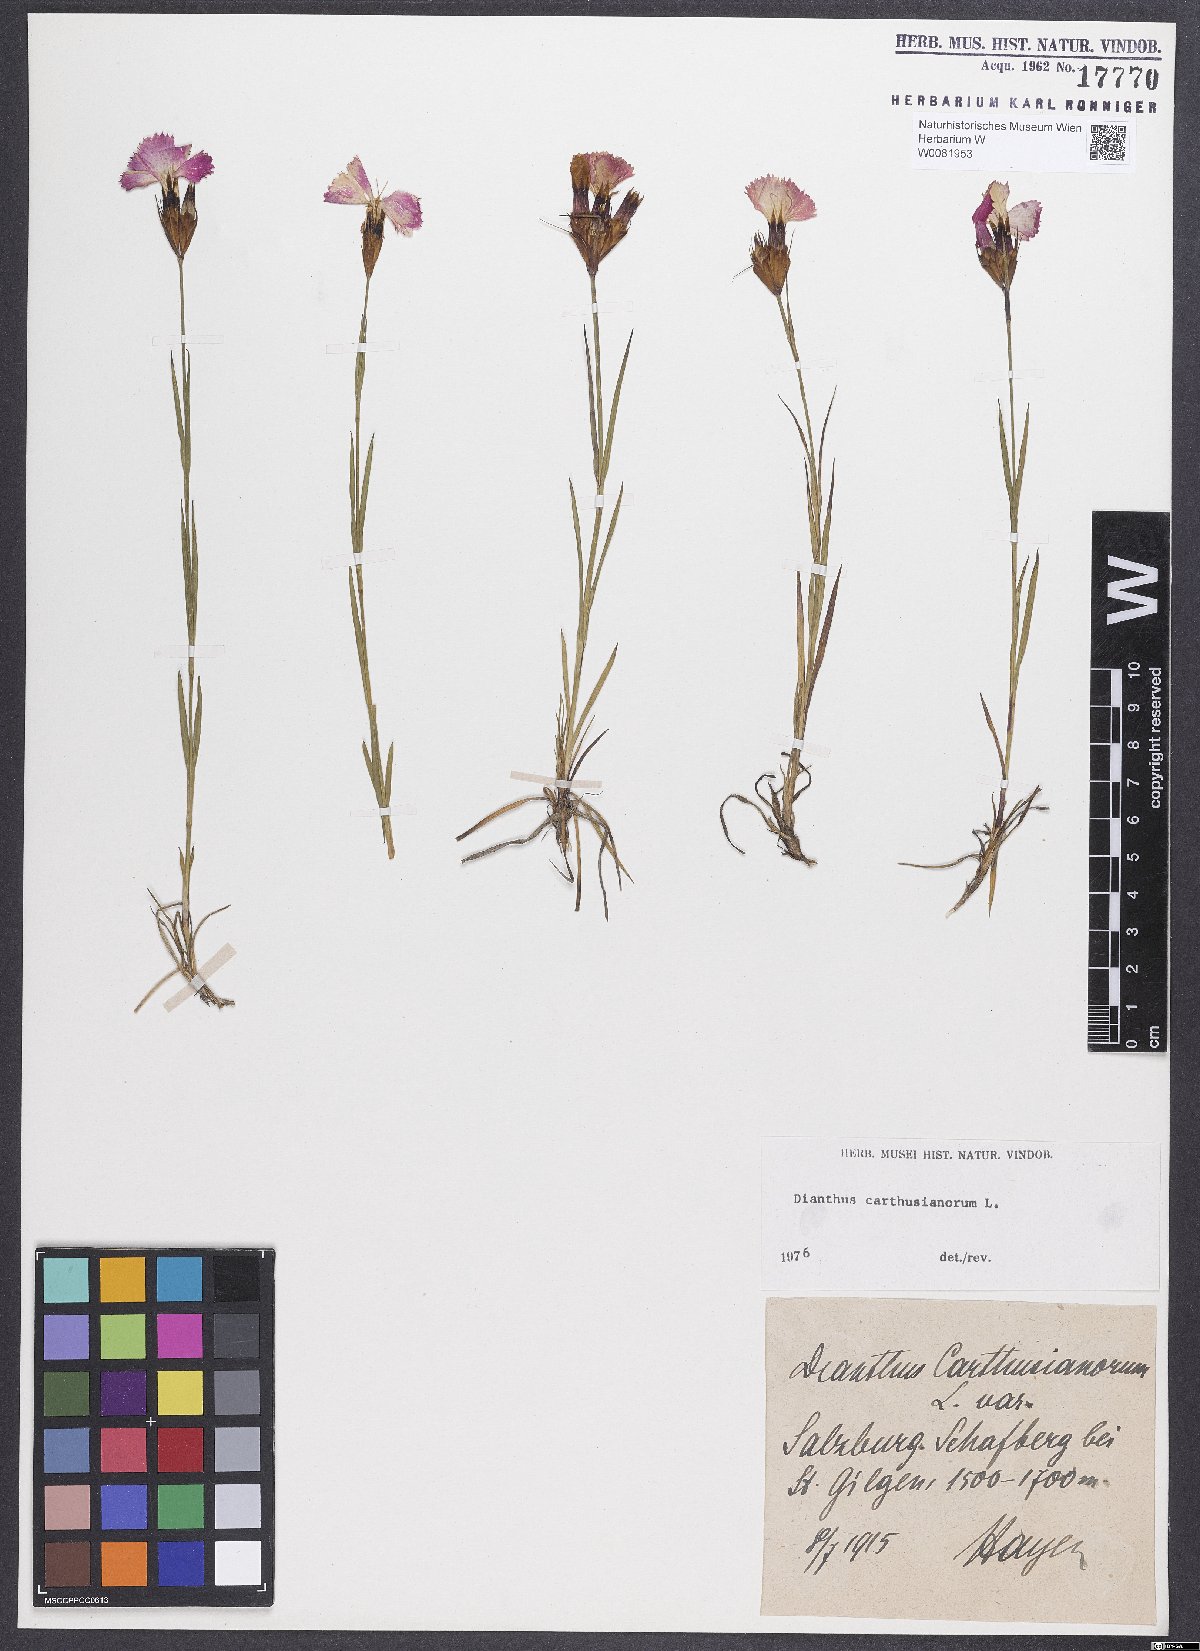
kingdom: Plantae
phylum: Tracheophyta
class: Magnoliopsida
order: Caryophyllales
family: Caryophyllaceae
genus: Dianthus
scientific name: Dianthus carthusianorum
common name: Carthusian pink
